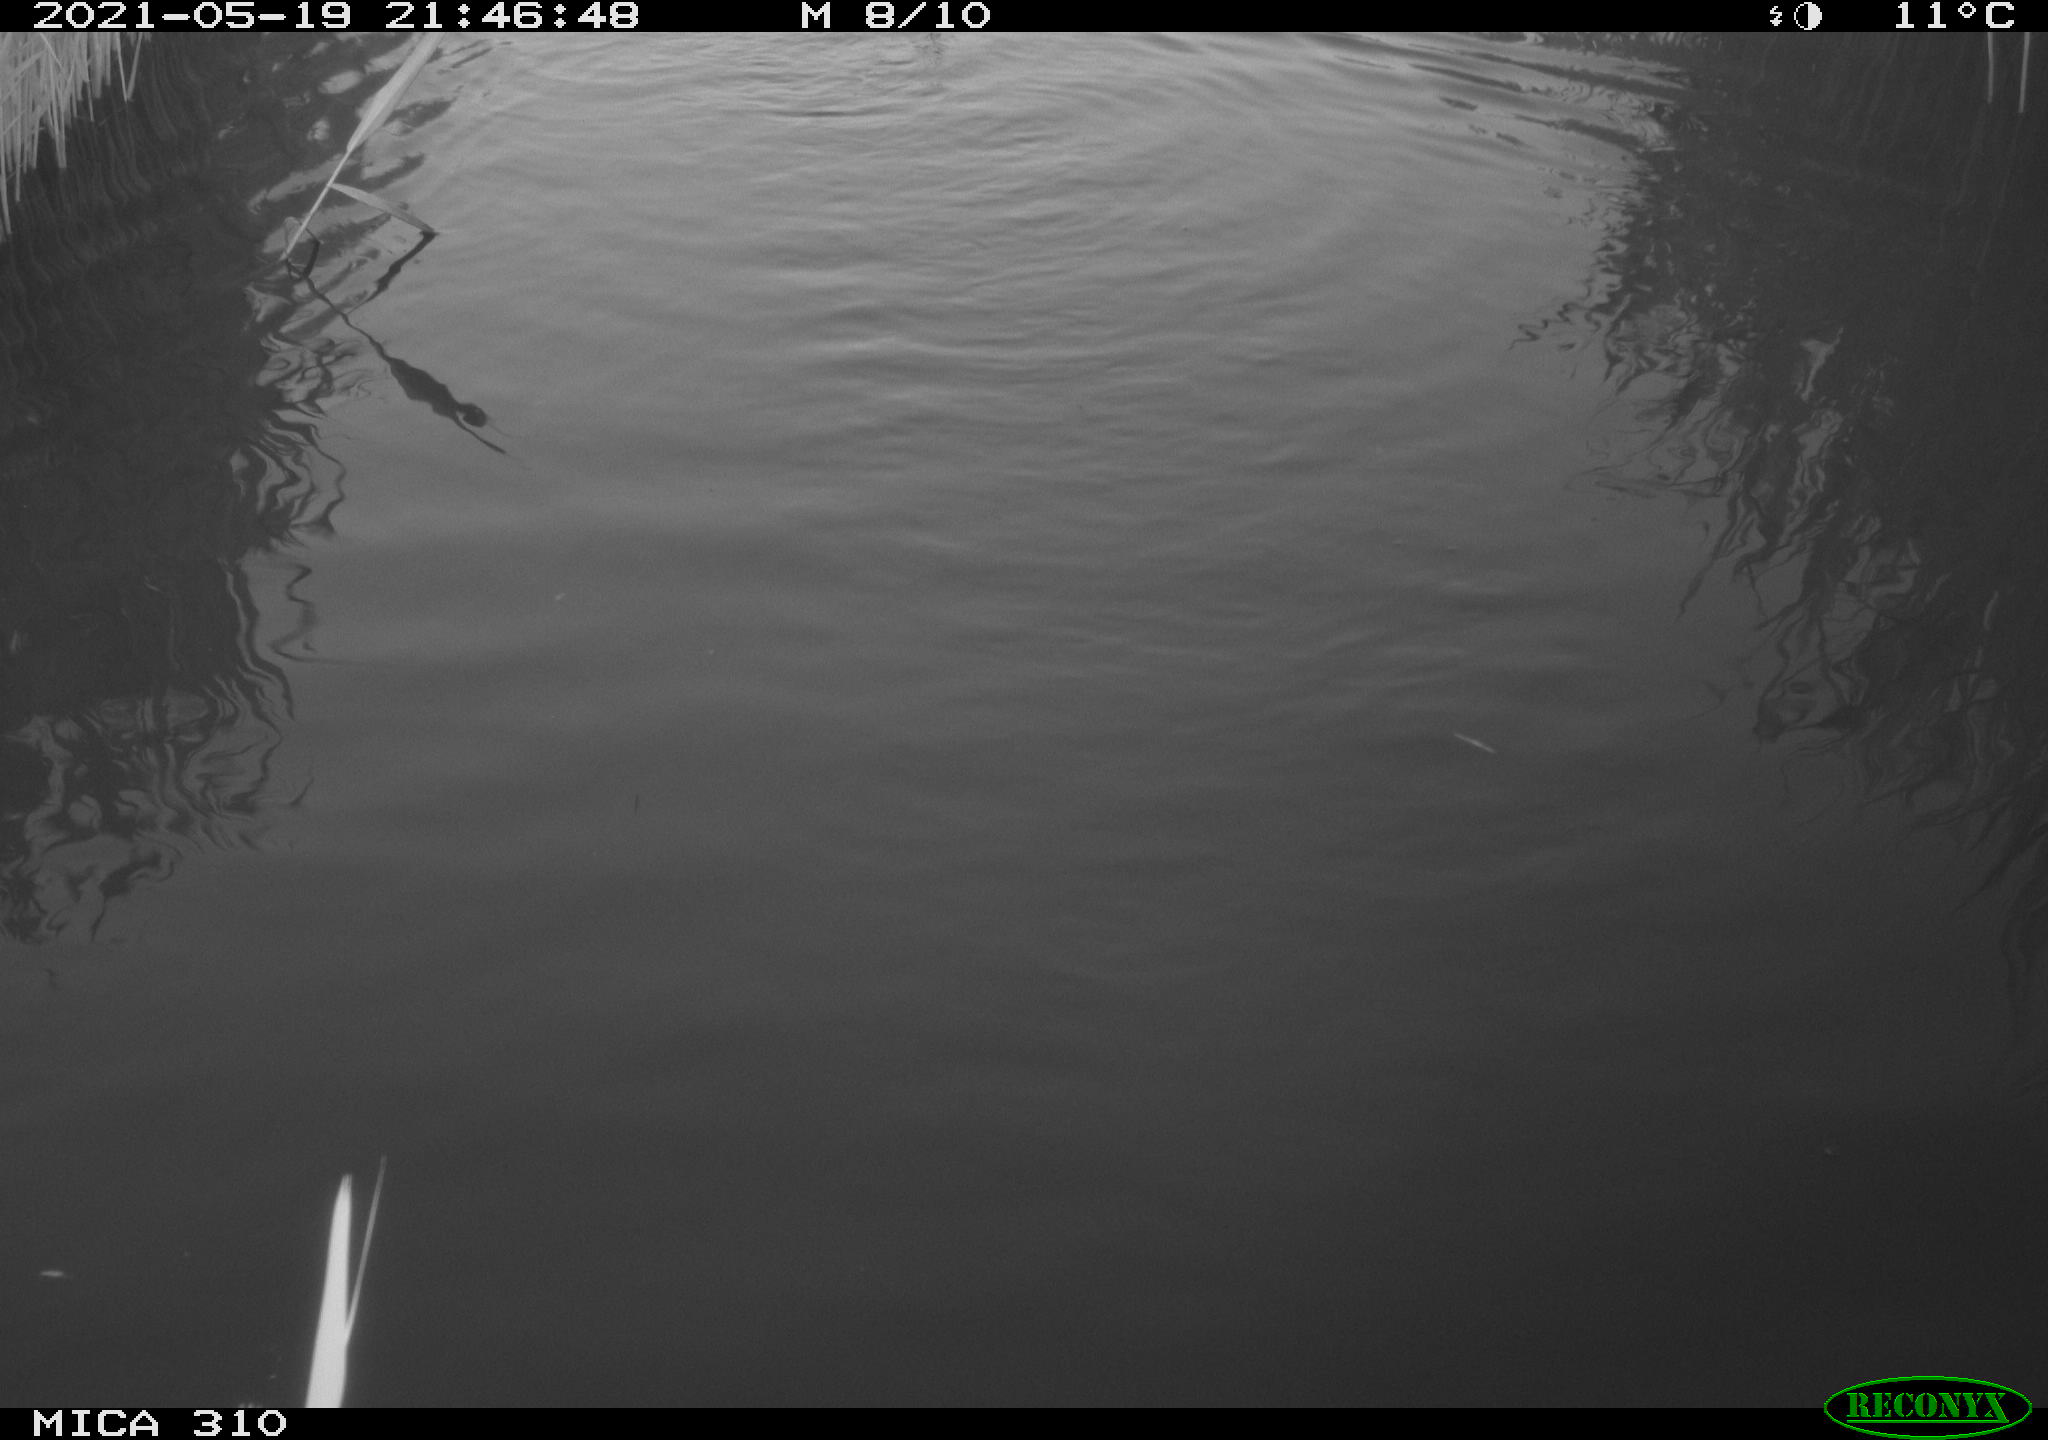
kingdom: Animalia
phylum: Chordata
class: Aves
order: Anseriformes
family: Anatidae
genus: Anas
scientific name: Anas platyrhynchos
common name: Mallard
